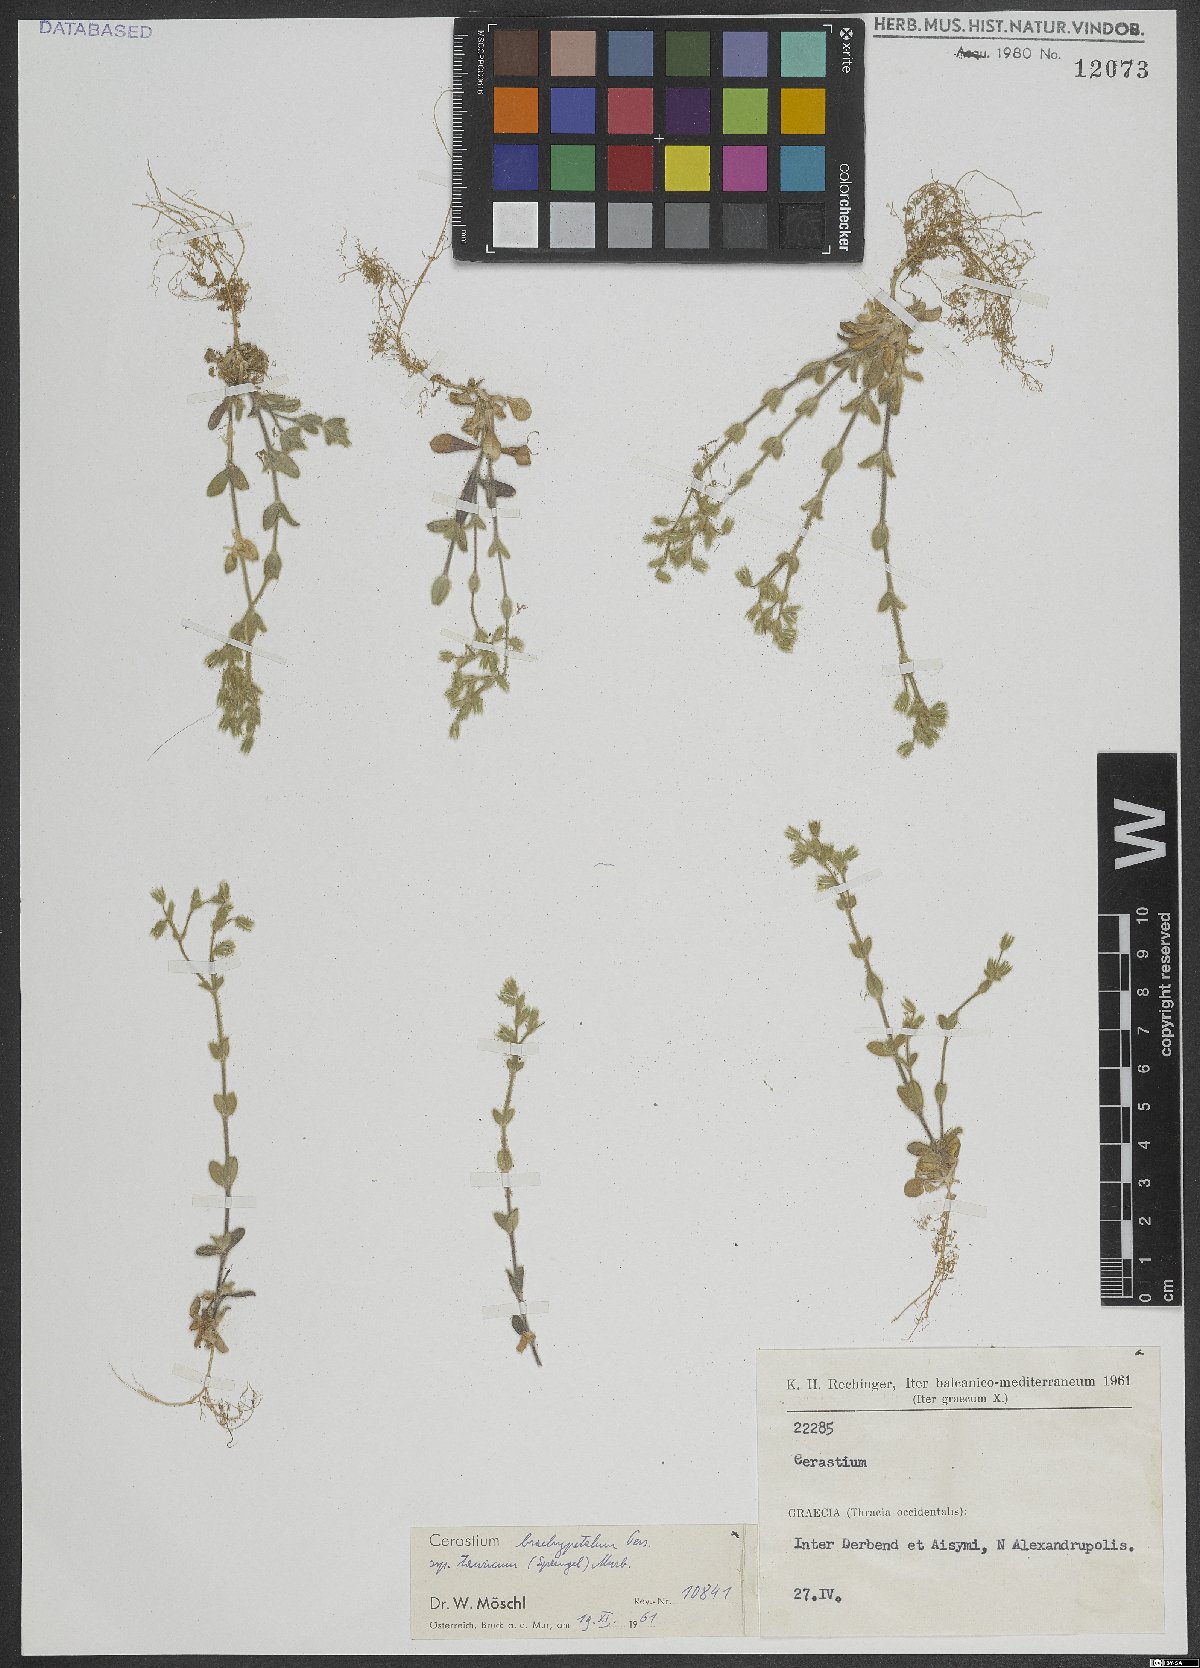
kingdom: Plantae
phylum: Tracheophyta
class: Magnoliopsida
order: Caryophyllales
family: Caryophyllaceae
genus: Cerastium
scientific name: Cerastium brachypetalum
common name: Grey mouse-ear
